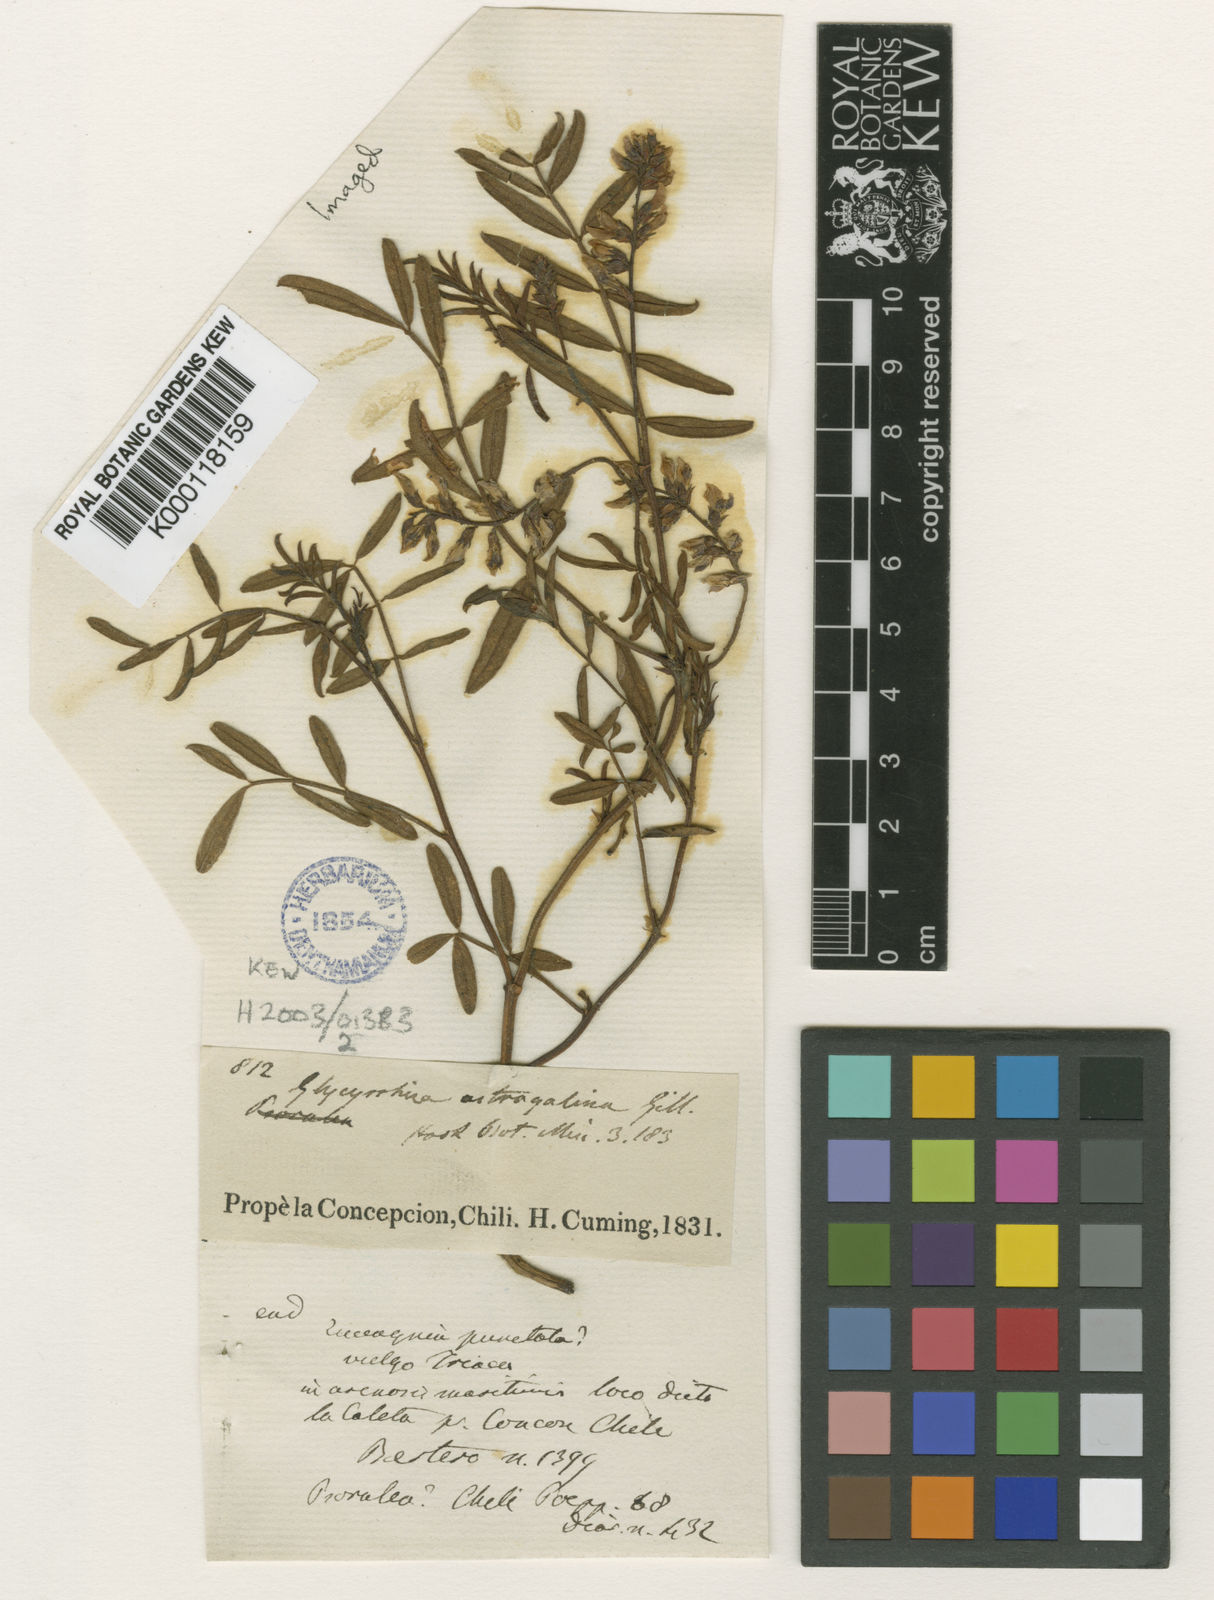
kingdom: Plantae
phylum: Tracheophyta
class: Magnoliopsida
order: Fabales
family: Fabaceae
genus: Glycyrrhiza
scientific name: Glycyrrhiza astragalina
